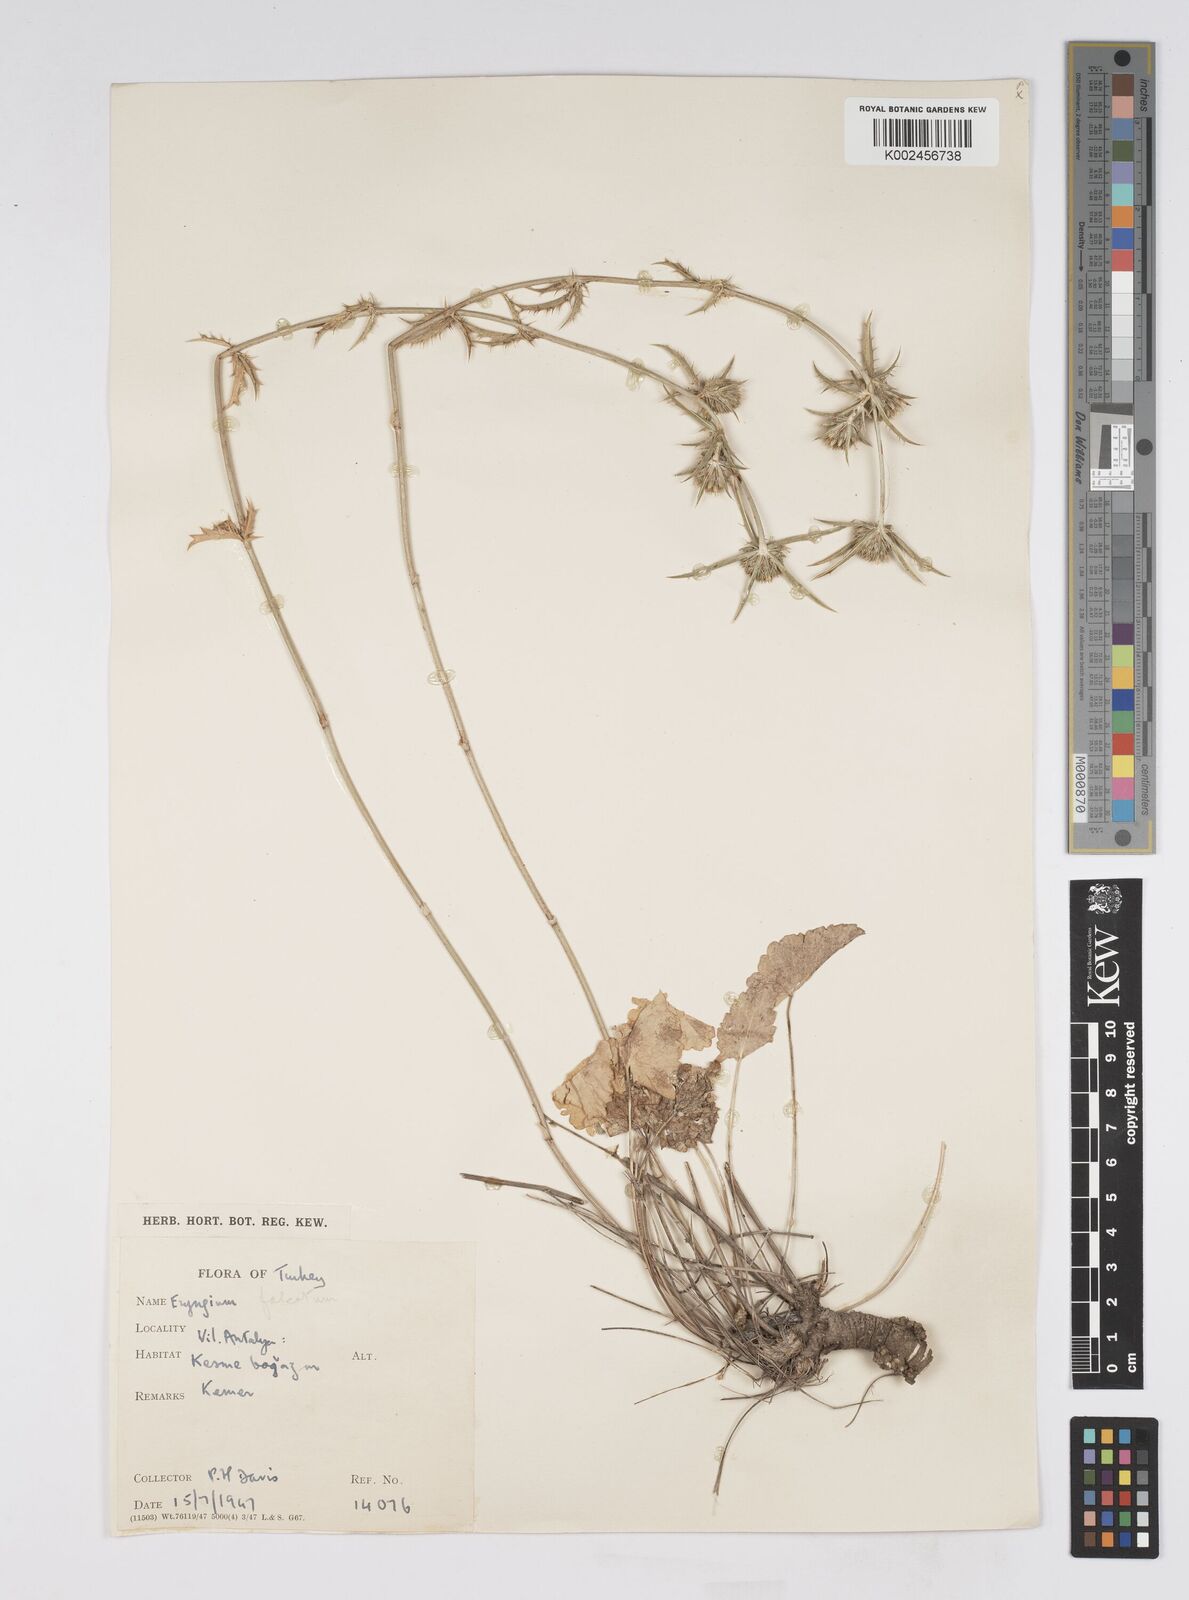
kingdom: Plantae
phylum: Tracheophyta
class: Magnoliopsida
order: Apiales
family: Apiaceae
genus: Eryngium
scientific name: Eryngium falcatum
